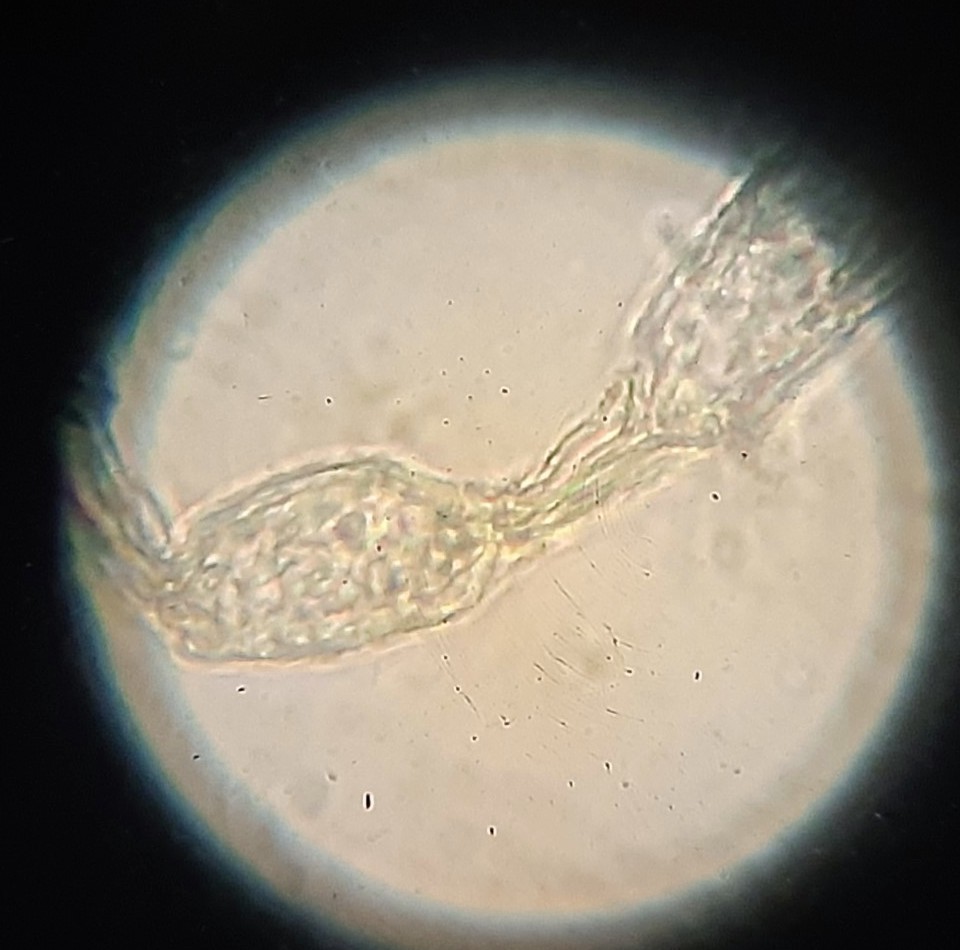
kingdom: Fungi
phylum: Ascomycota
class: Leotiomycetes
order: Helotiales
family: Erysiphaceae
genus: Podosphaera
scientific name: Podosphaera macularis
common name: Powdery mildew
